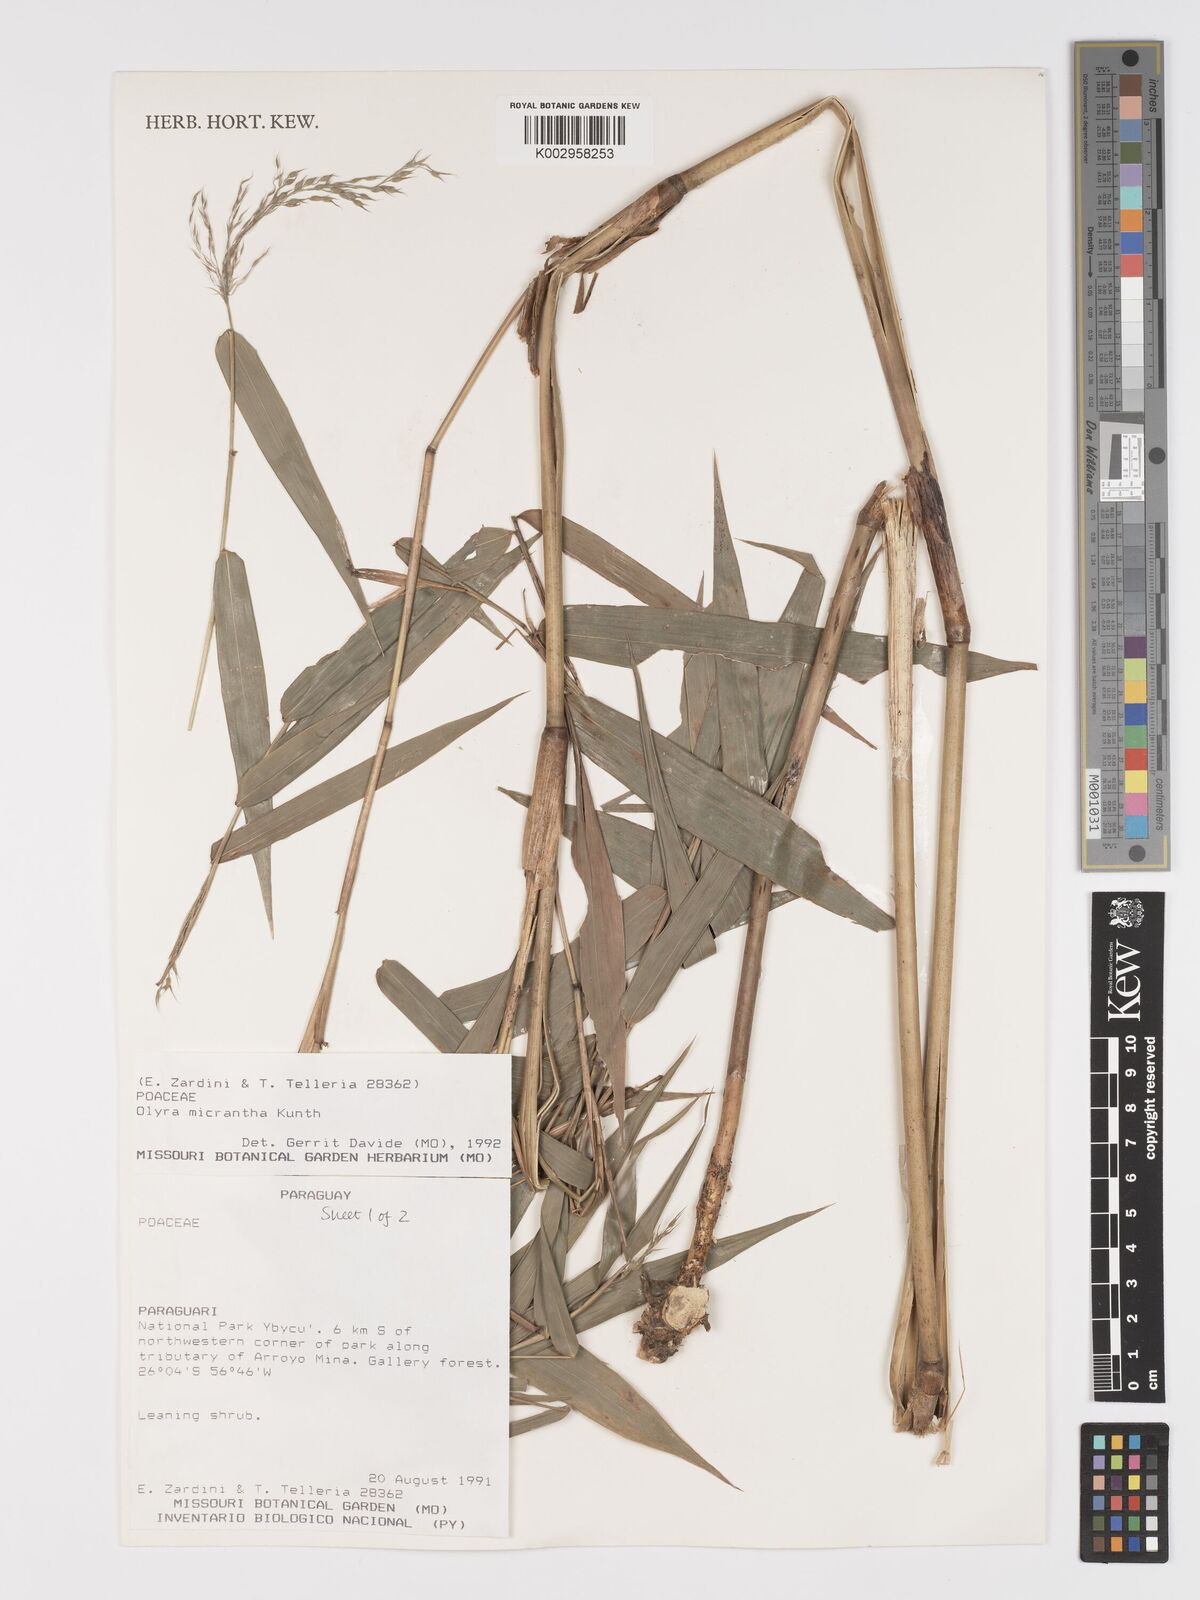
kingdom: Plantae
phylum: Tracheophyta
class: Liliopsida
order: Poales
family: Poaceae
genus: Taquara
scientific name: Taquara micrantha
